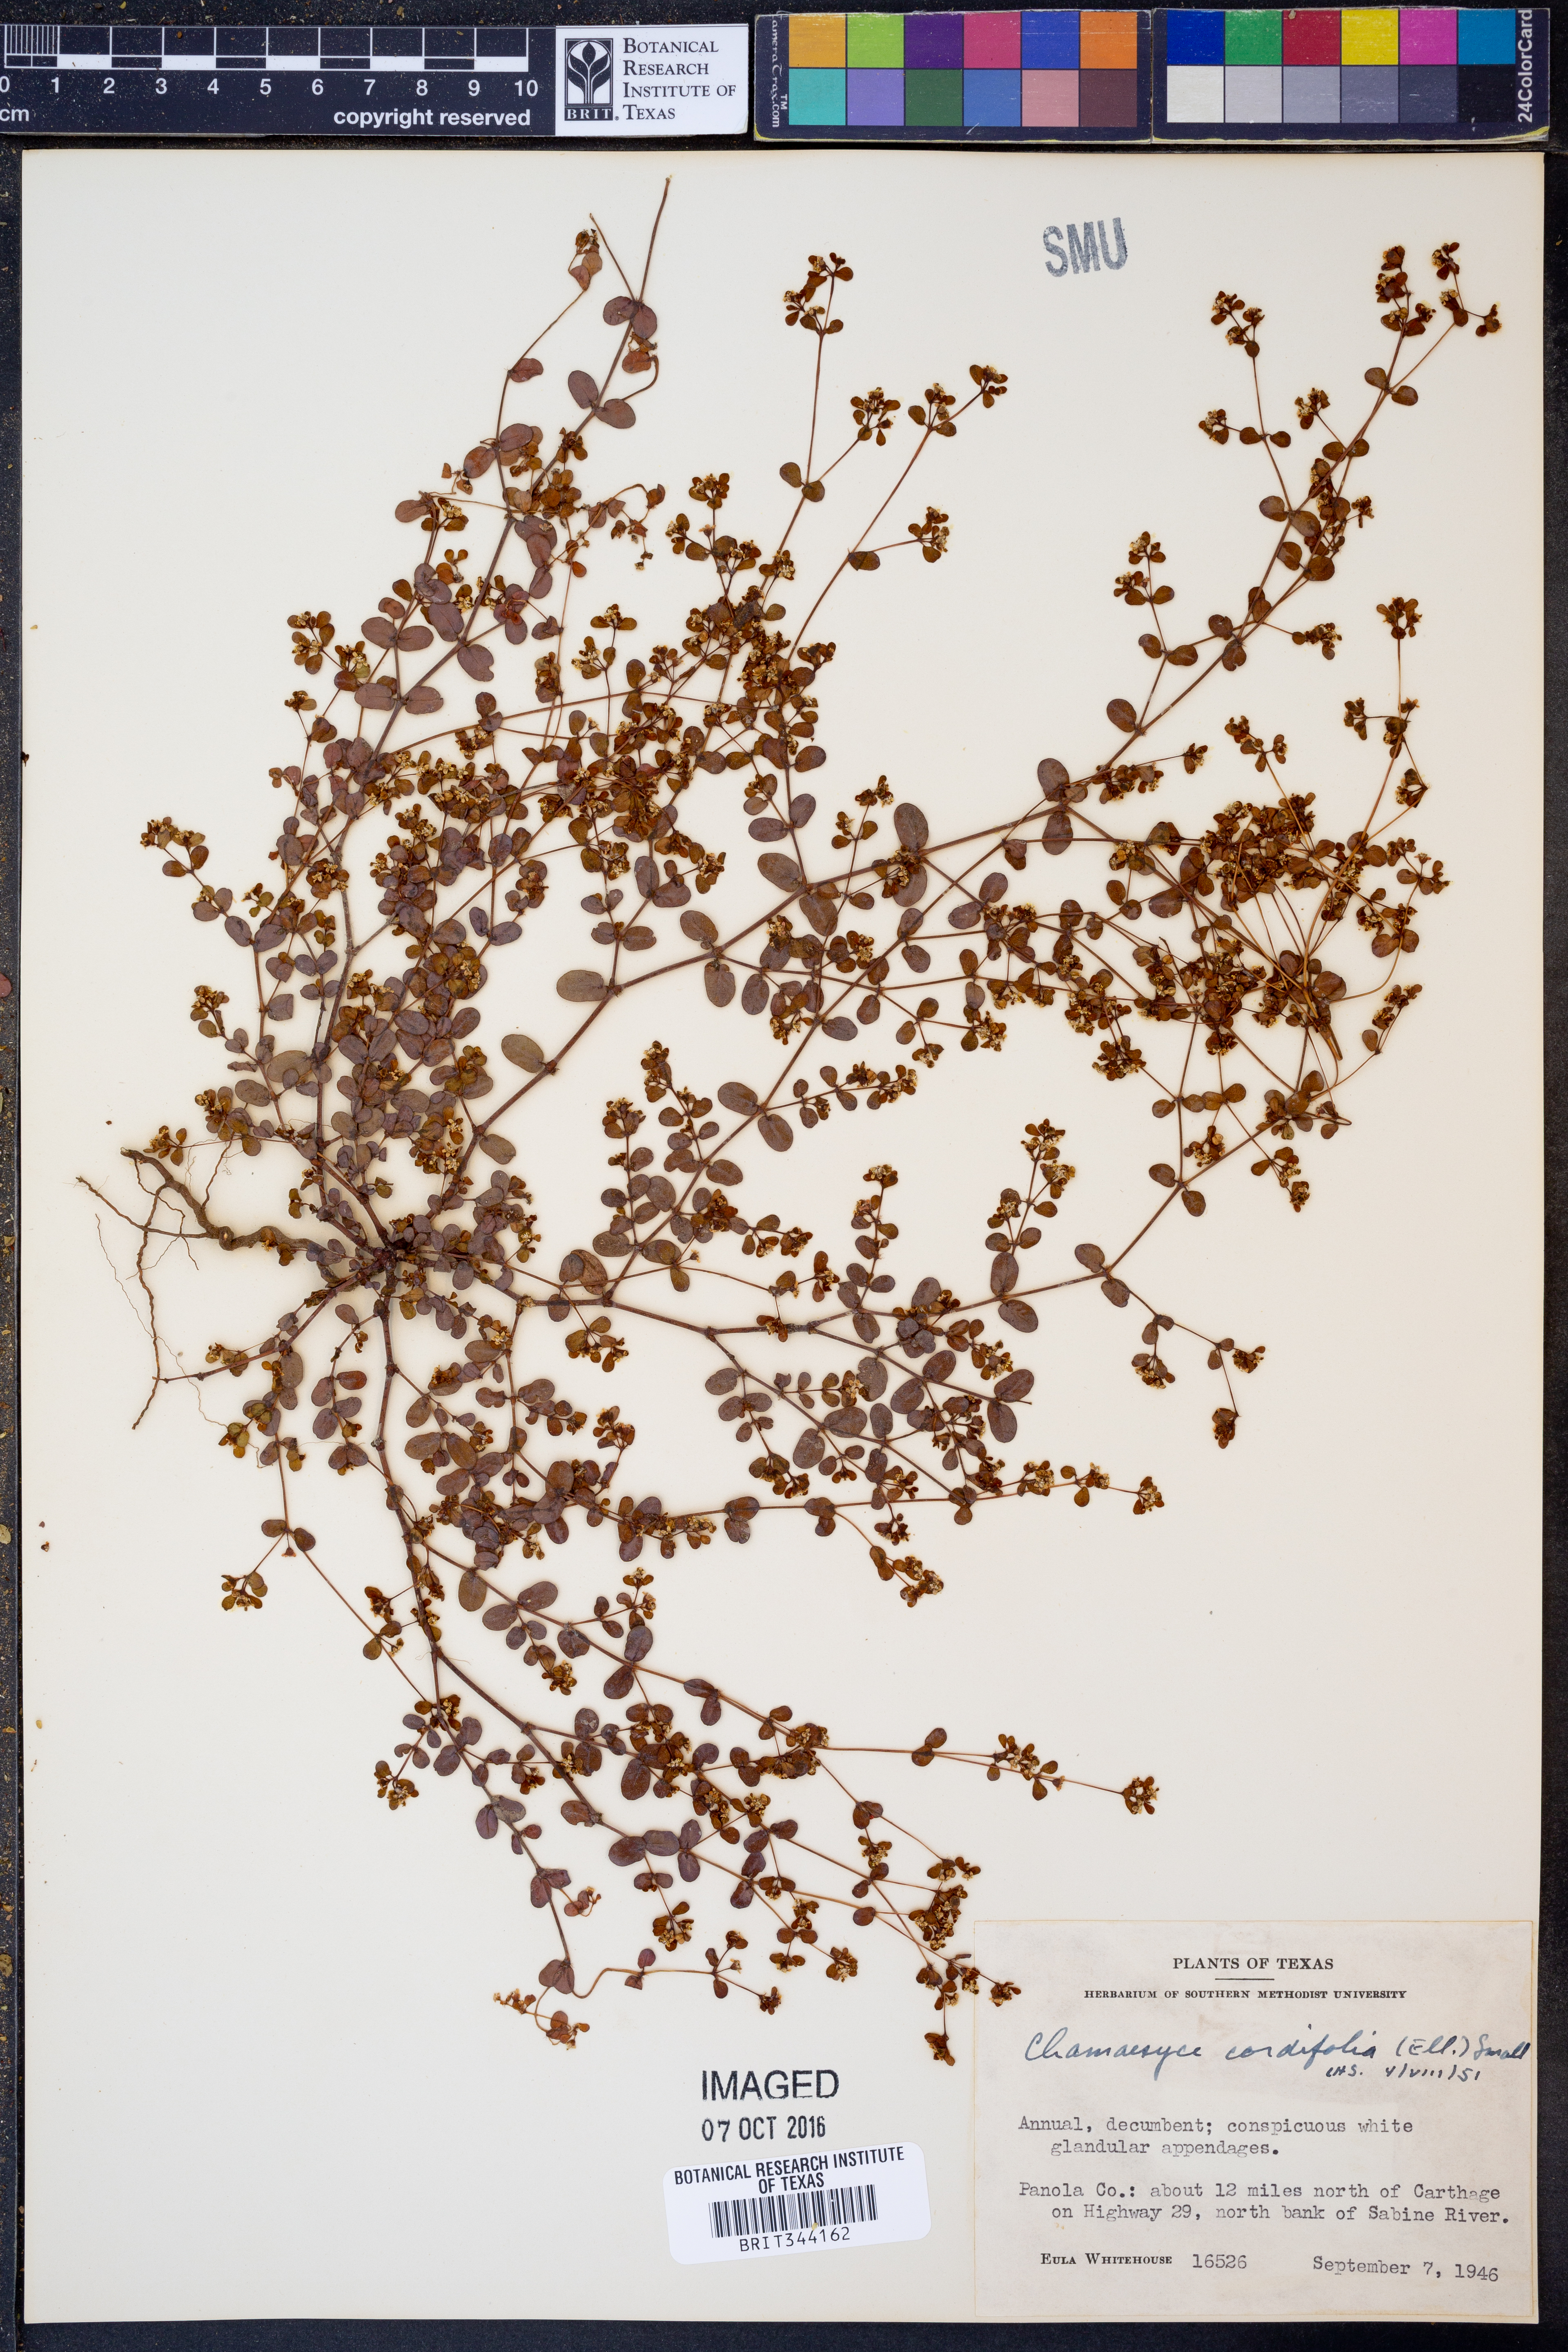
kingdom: Plantae
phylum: Tracheophyta
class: Magnoliopsida
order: Malpighiales
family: Euphorbiaceae
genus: Euphorbia
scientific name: Euphorbia cordifolia
